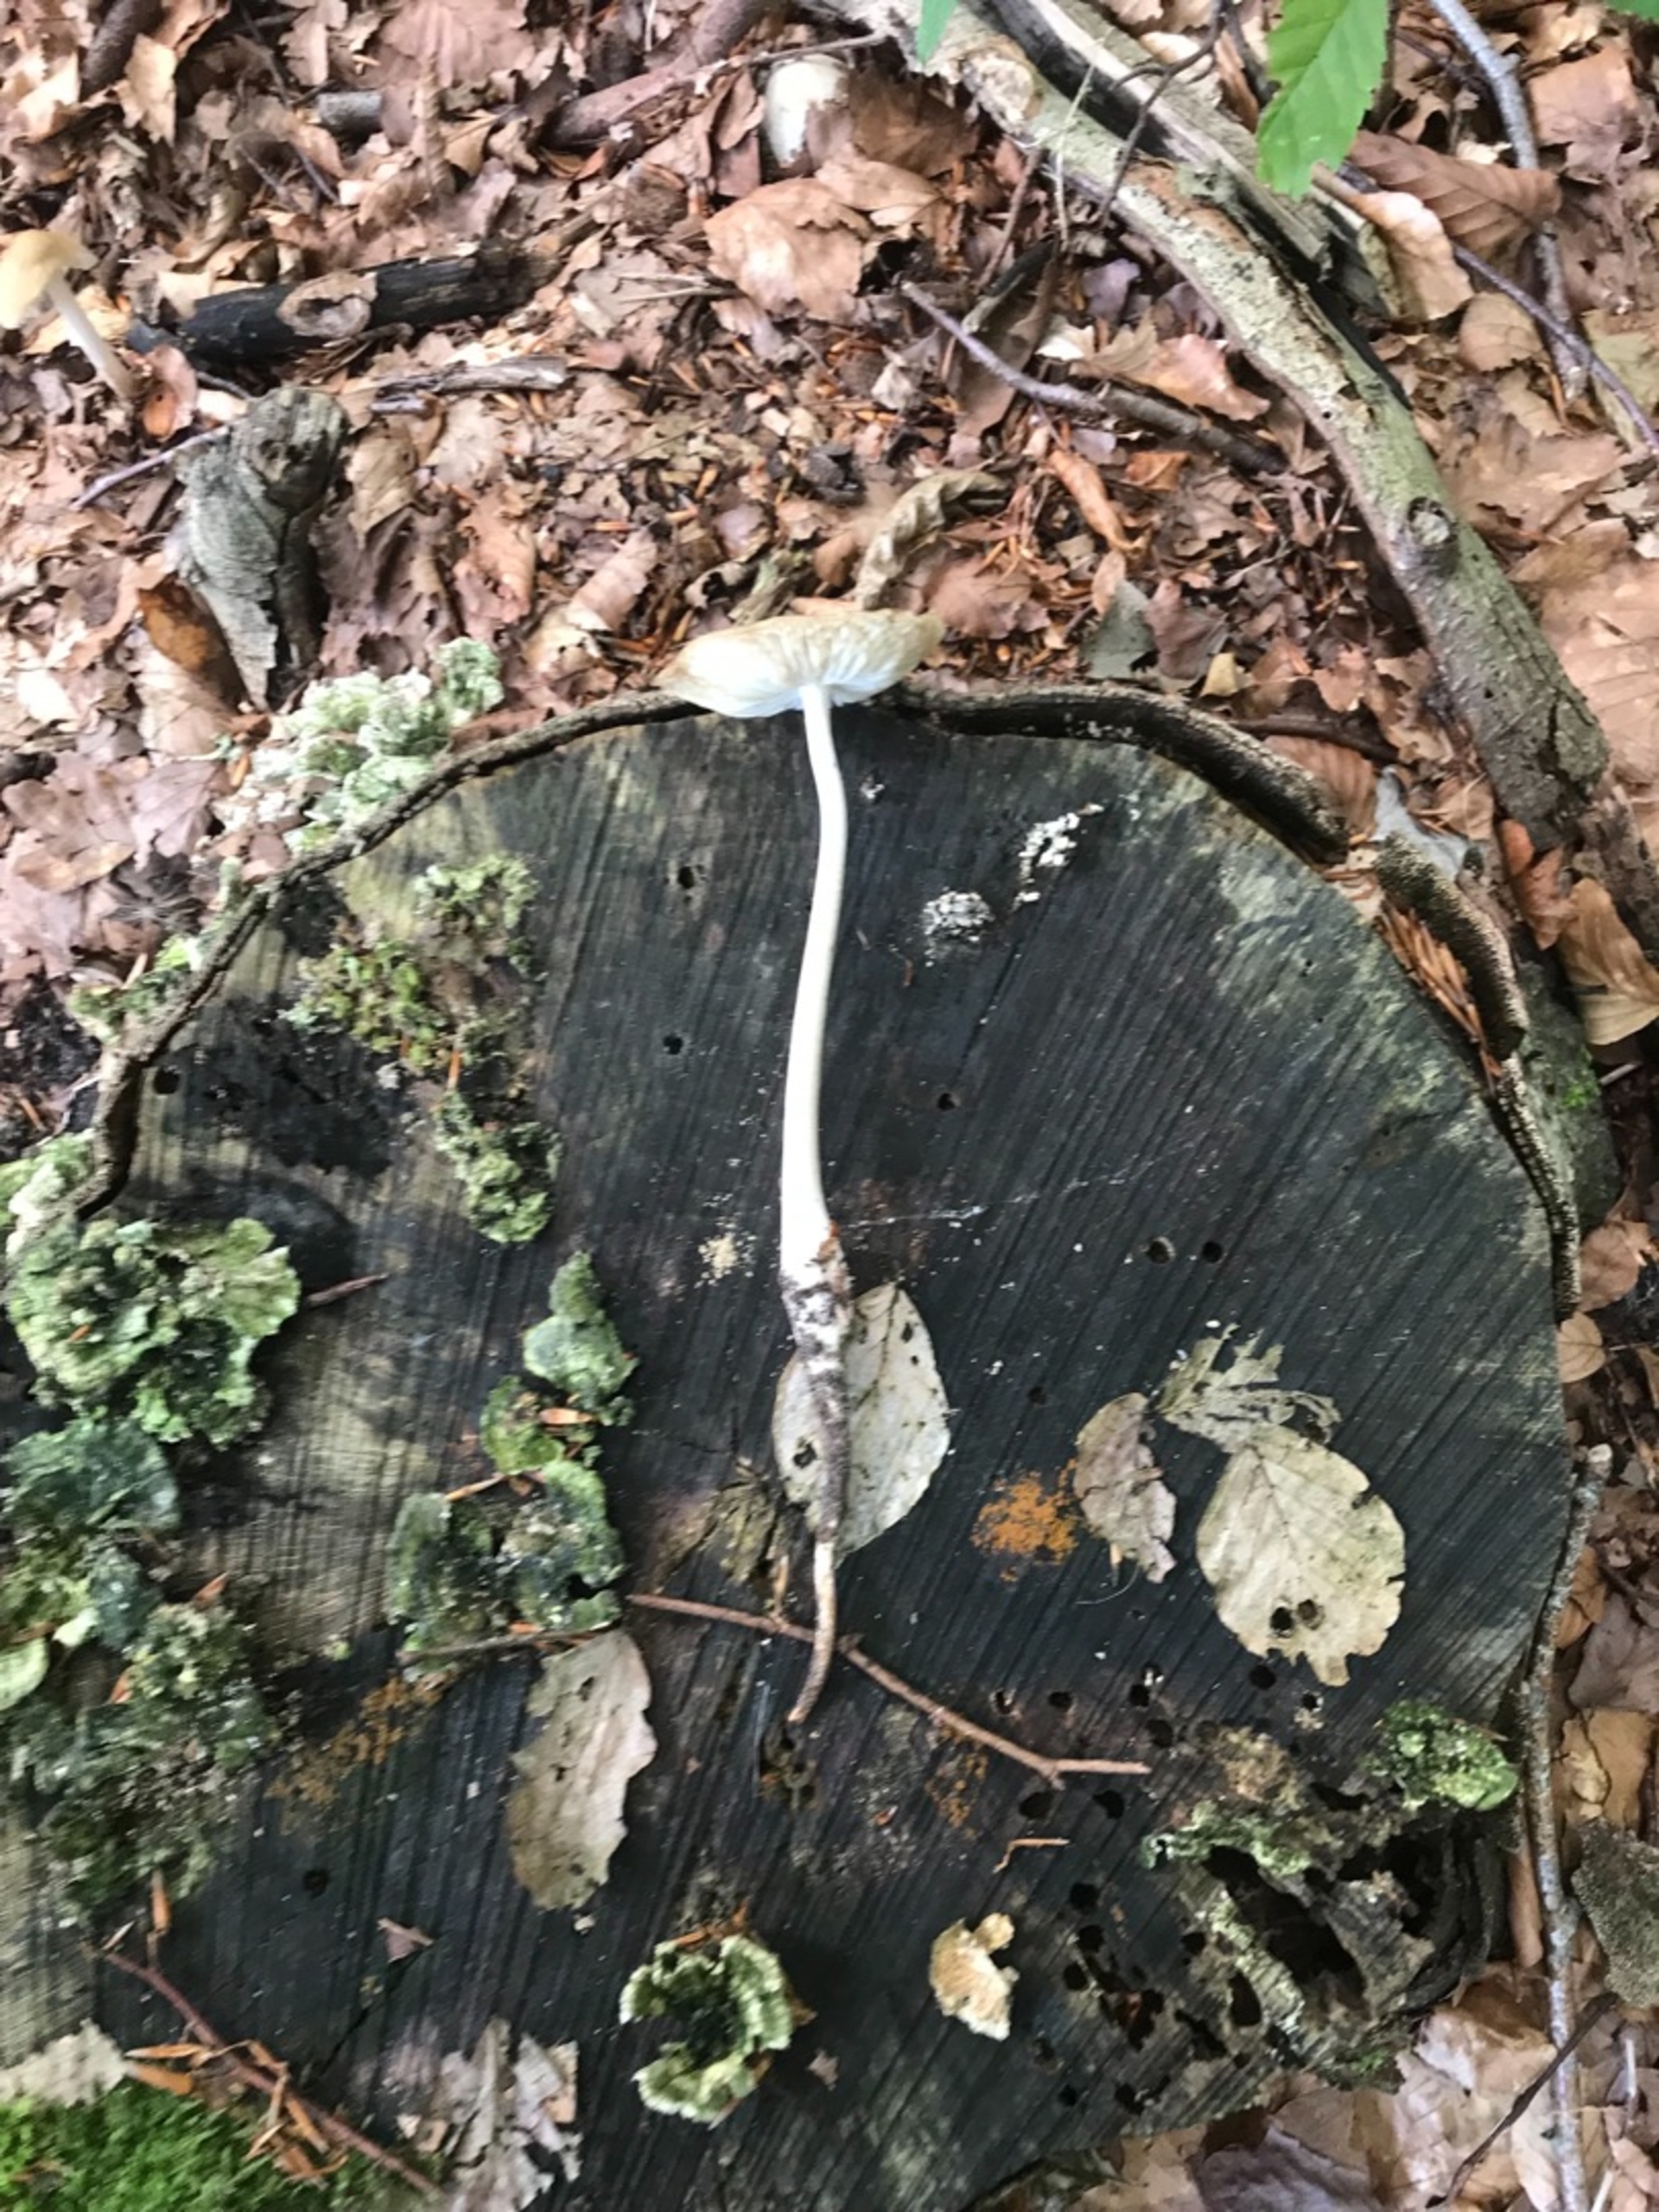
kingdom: Fungi
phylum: Basidiomycota
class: Agaricomycetes
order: Agaricales
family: Physalacriaceae
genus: Hymenopellis
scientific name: Hymenopellis radicata
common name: Almindelig pælerodshat
